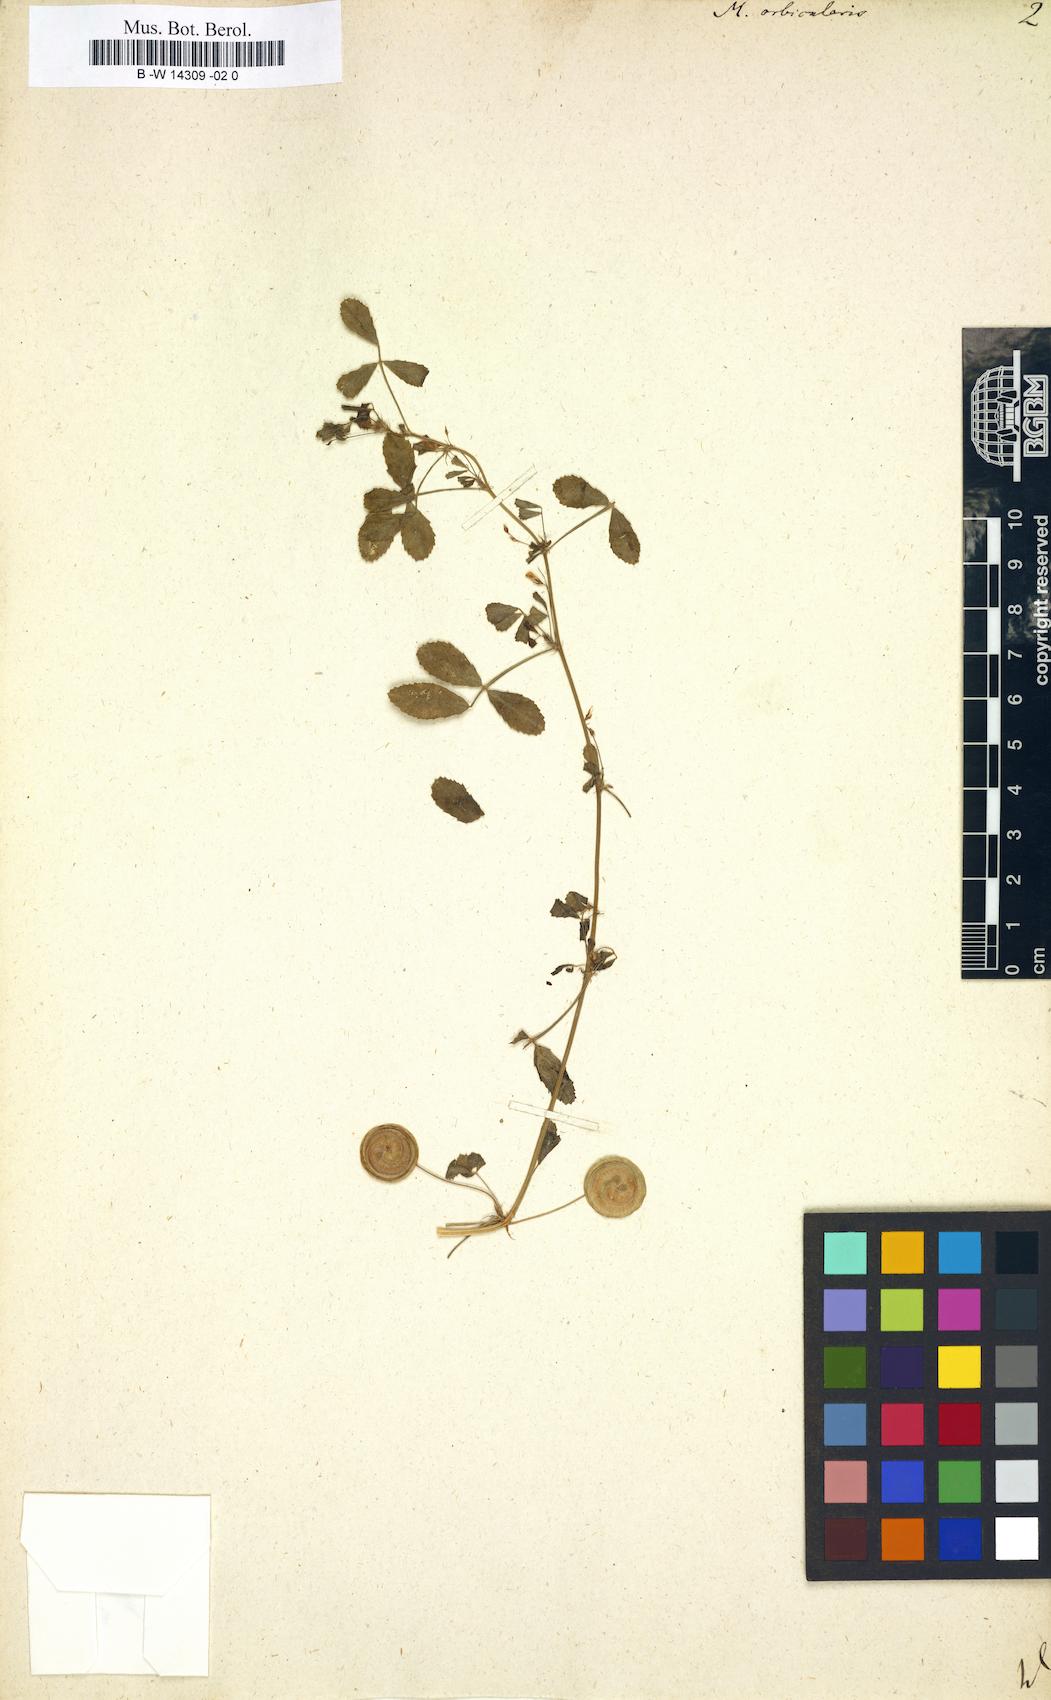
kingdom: Plantae
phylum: Tracheophyta
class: Magnoliopsida
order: Fabales
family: Fabaceae
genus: Medicago
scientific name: Medicago orbicularis
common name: Button medick
